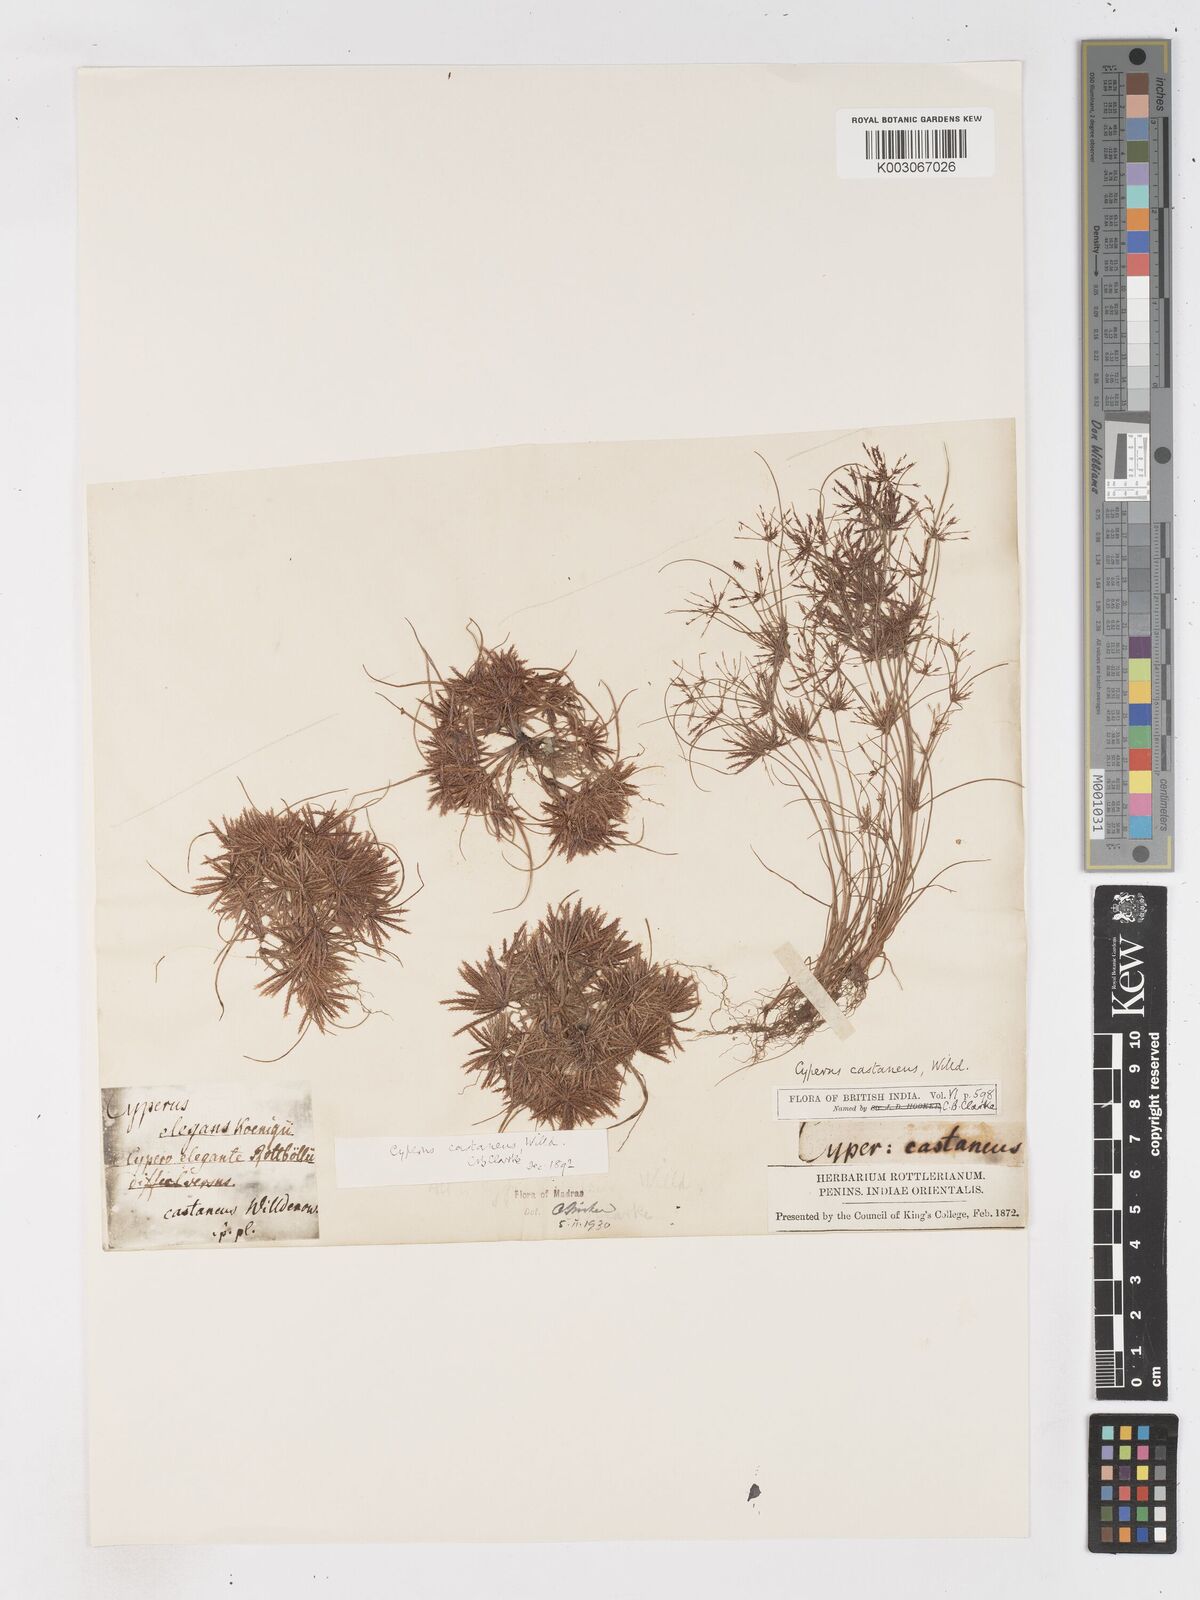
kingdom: Plantae
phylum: Tracheophyta
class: Liliopsida
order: Poales
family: Cyperaceae
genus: Cyperus
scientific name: Cyperus castaneus
